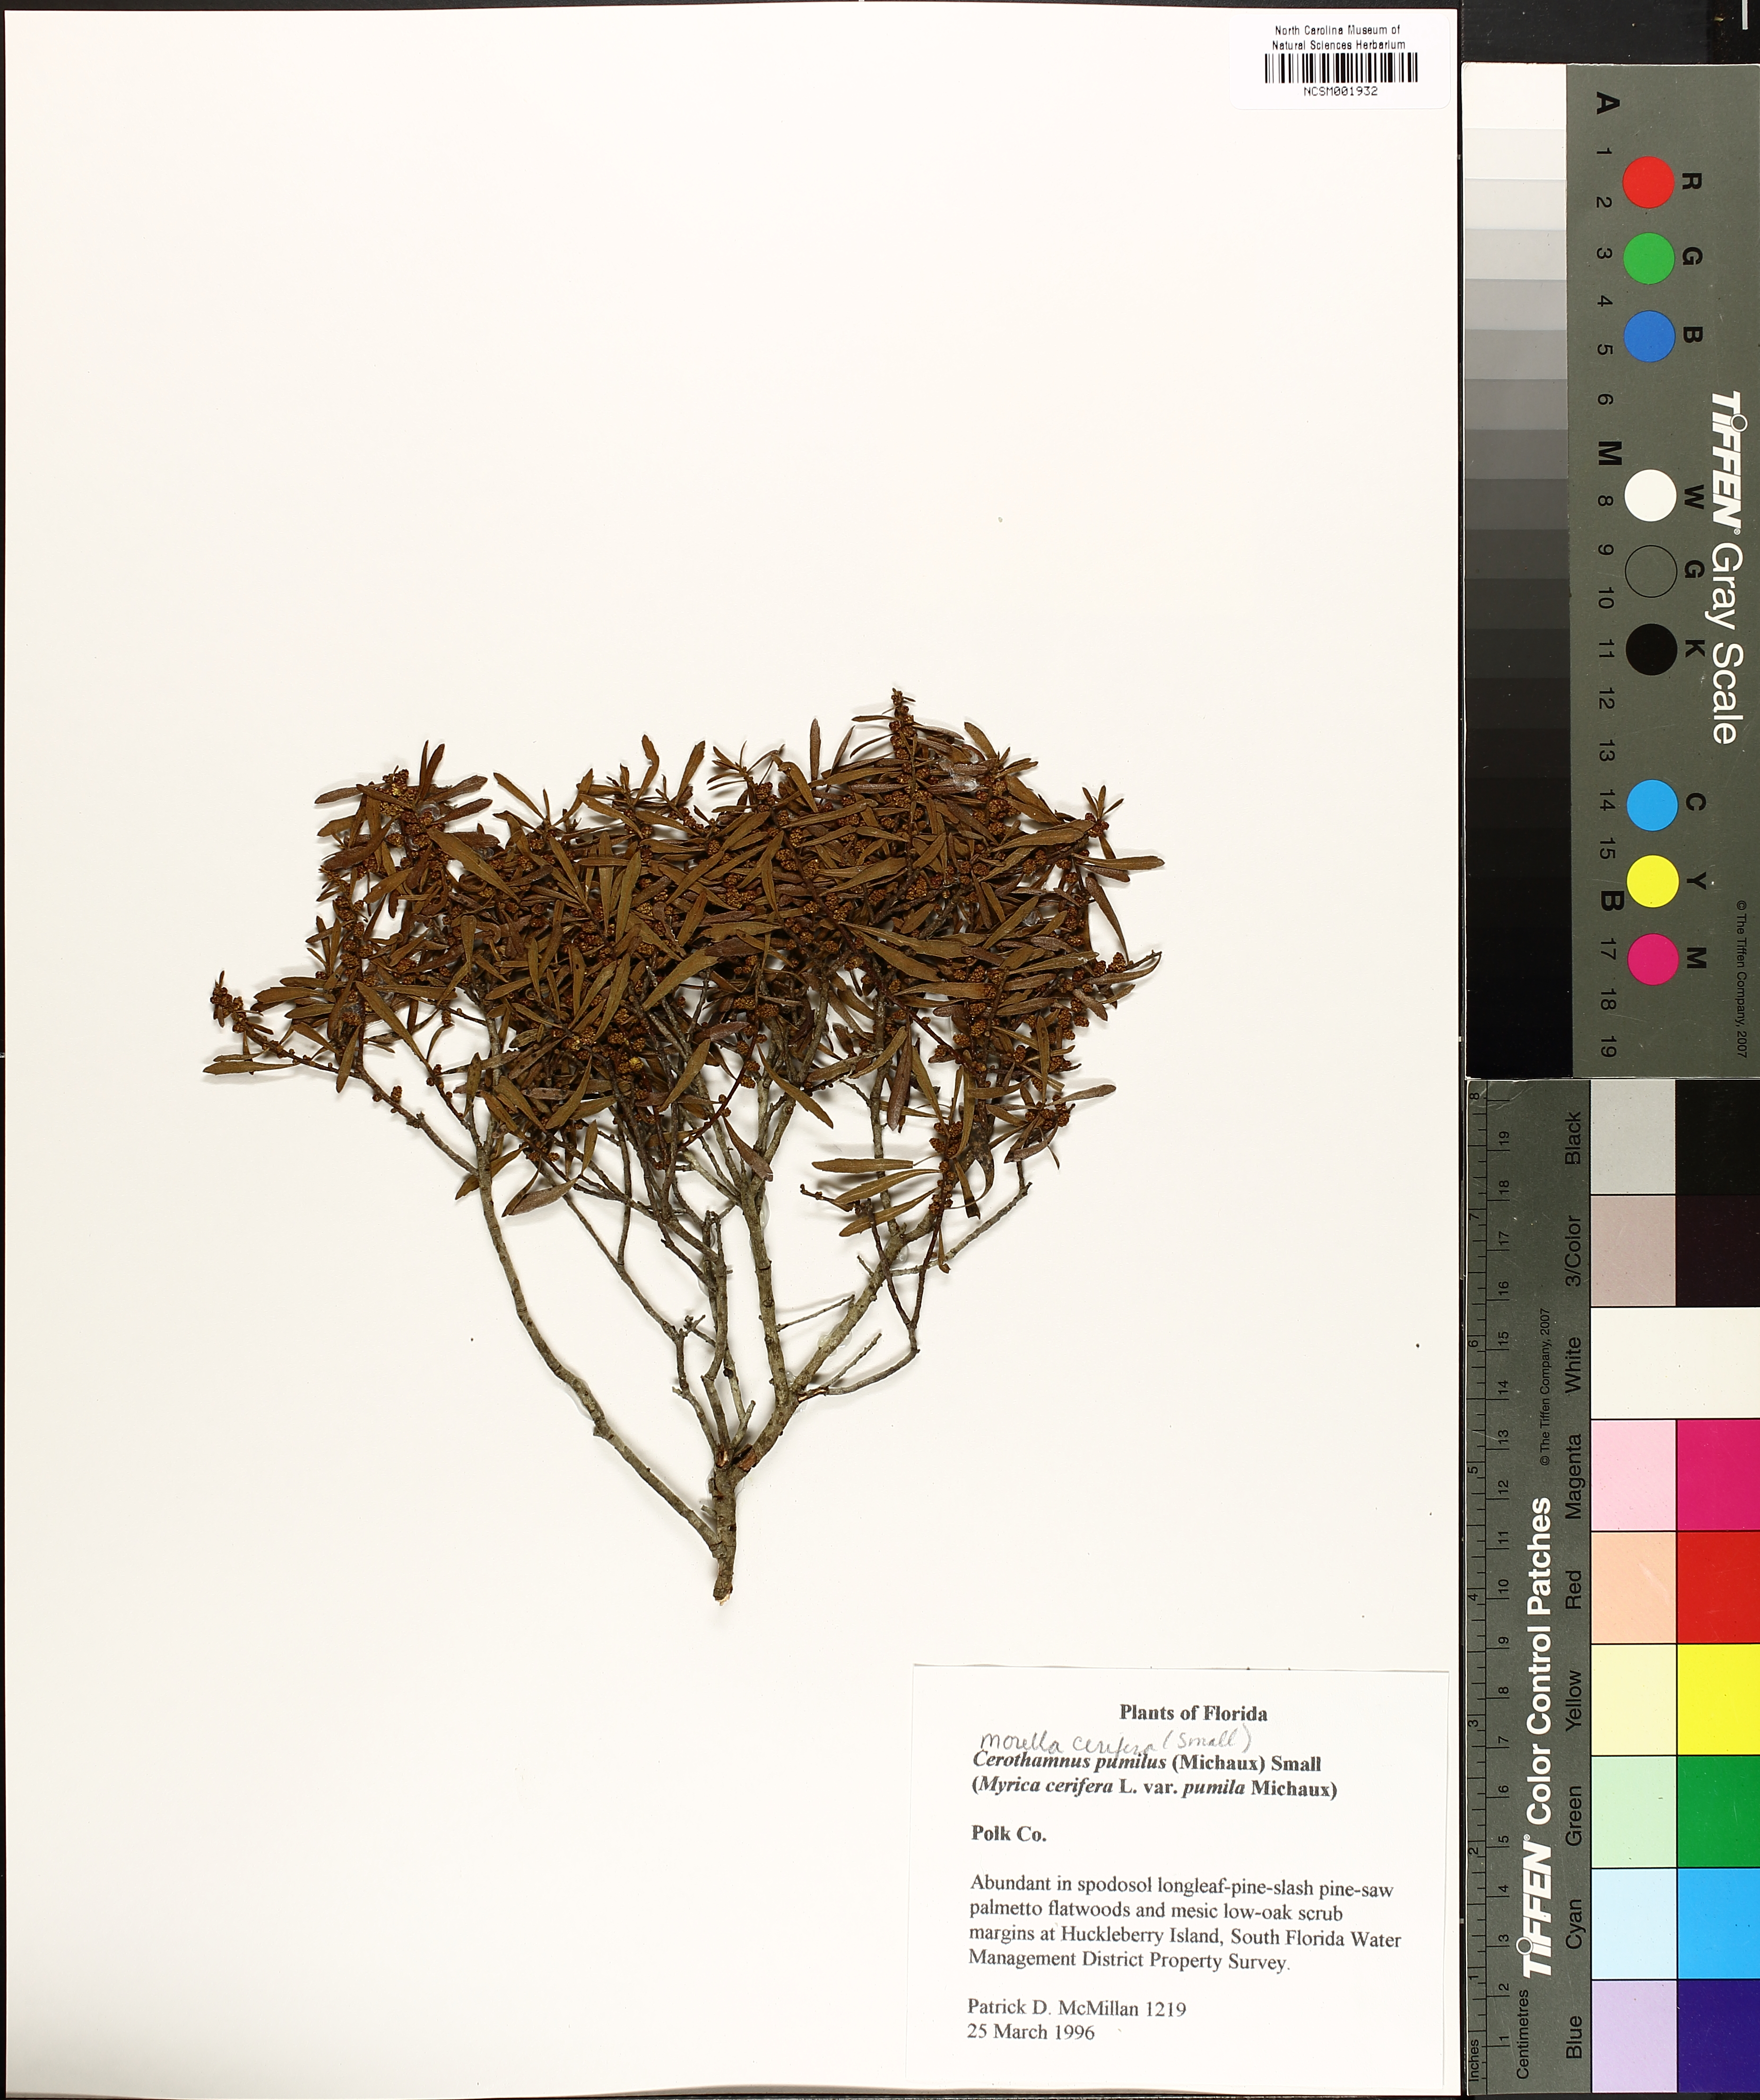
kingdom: Plantae
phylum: Tracheophyta
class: Magnoliopsida
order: Fagales
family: Myricaceae
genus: Morella
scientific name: Morella cerifera
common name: Wax myrtle
